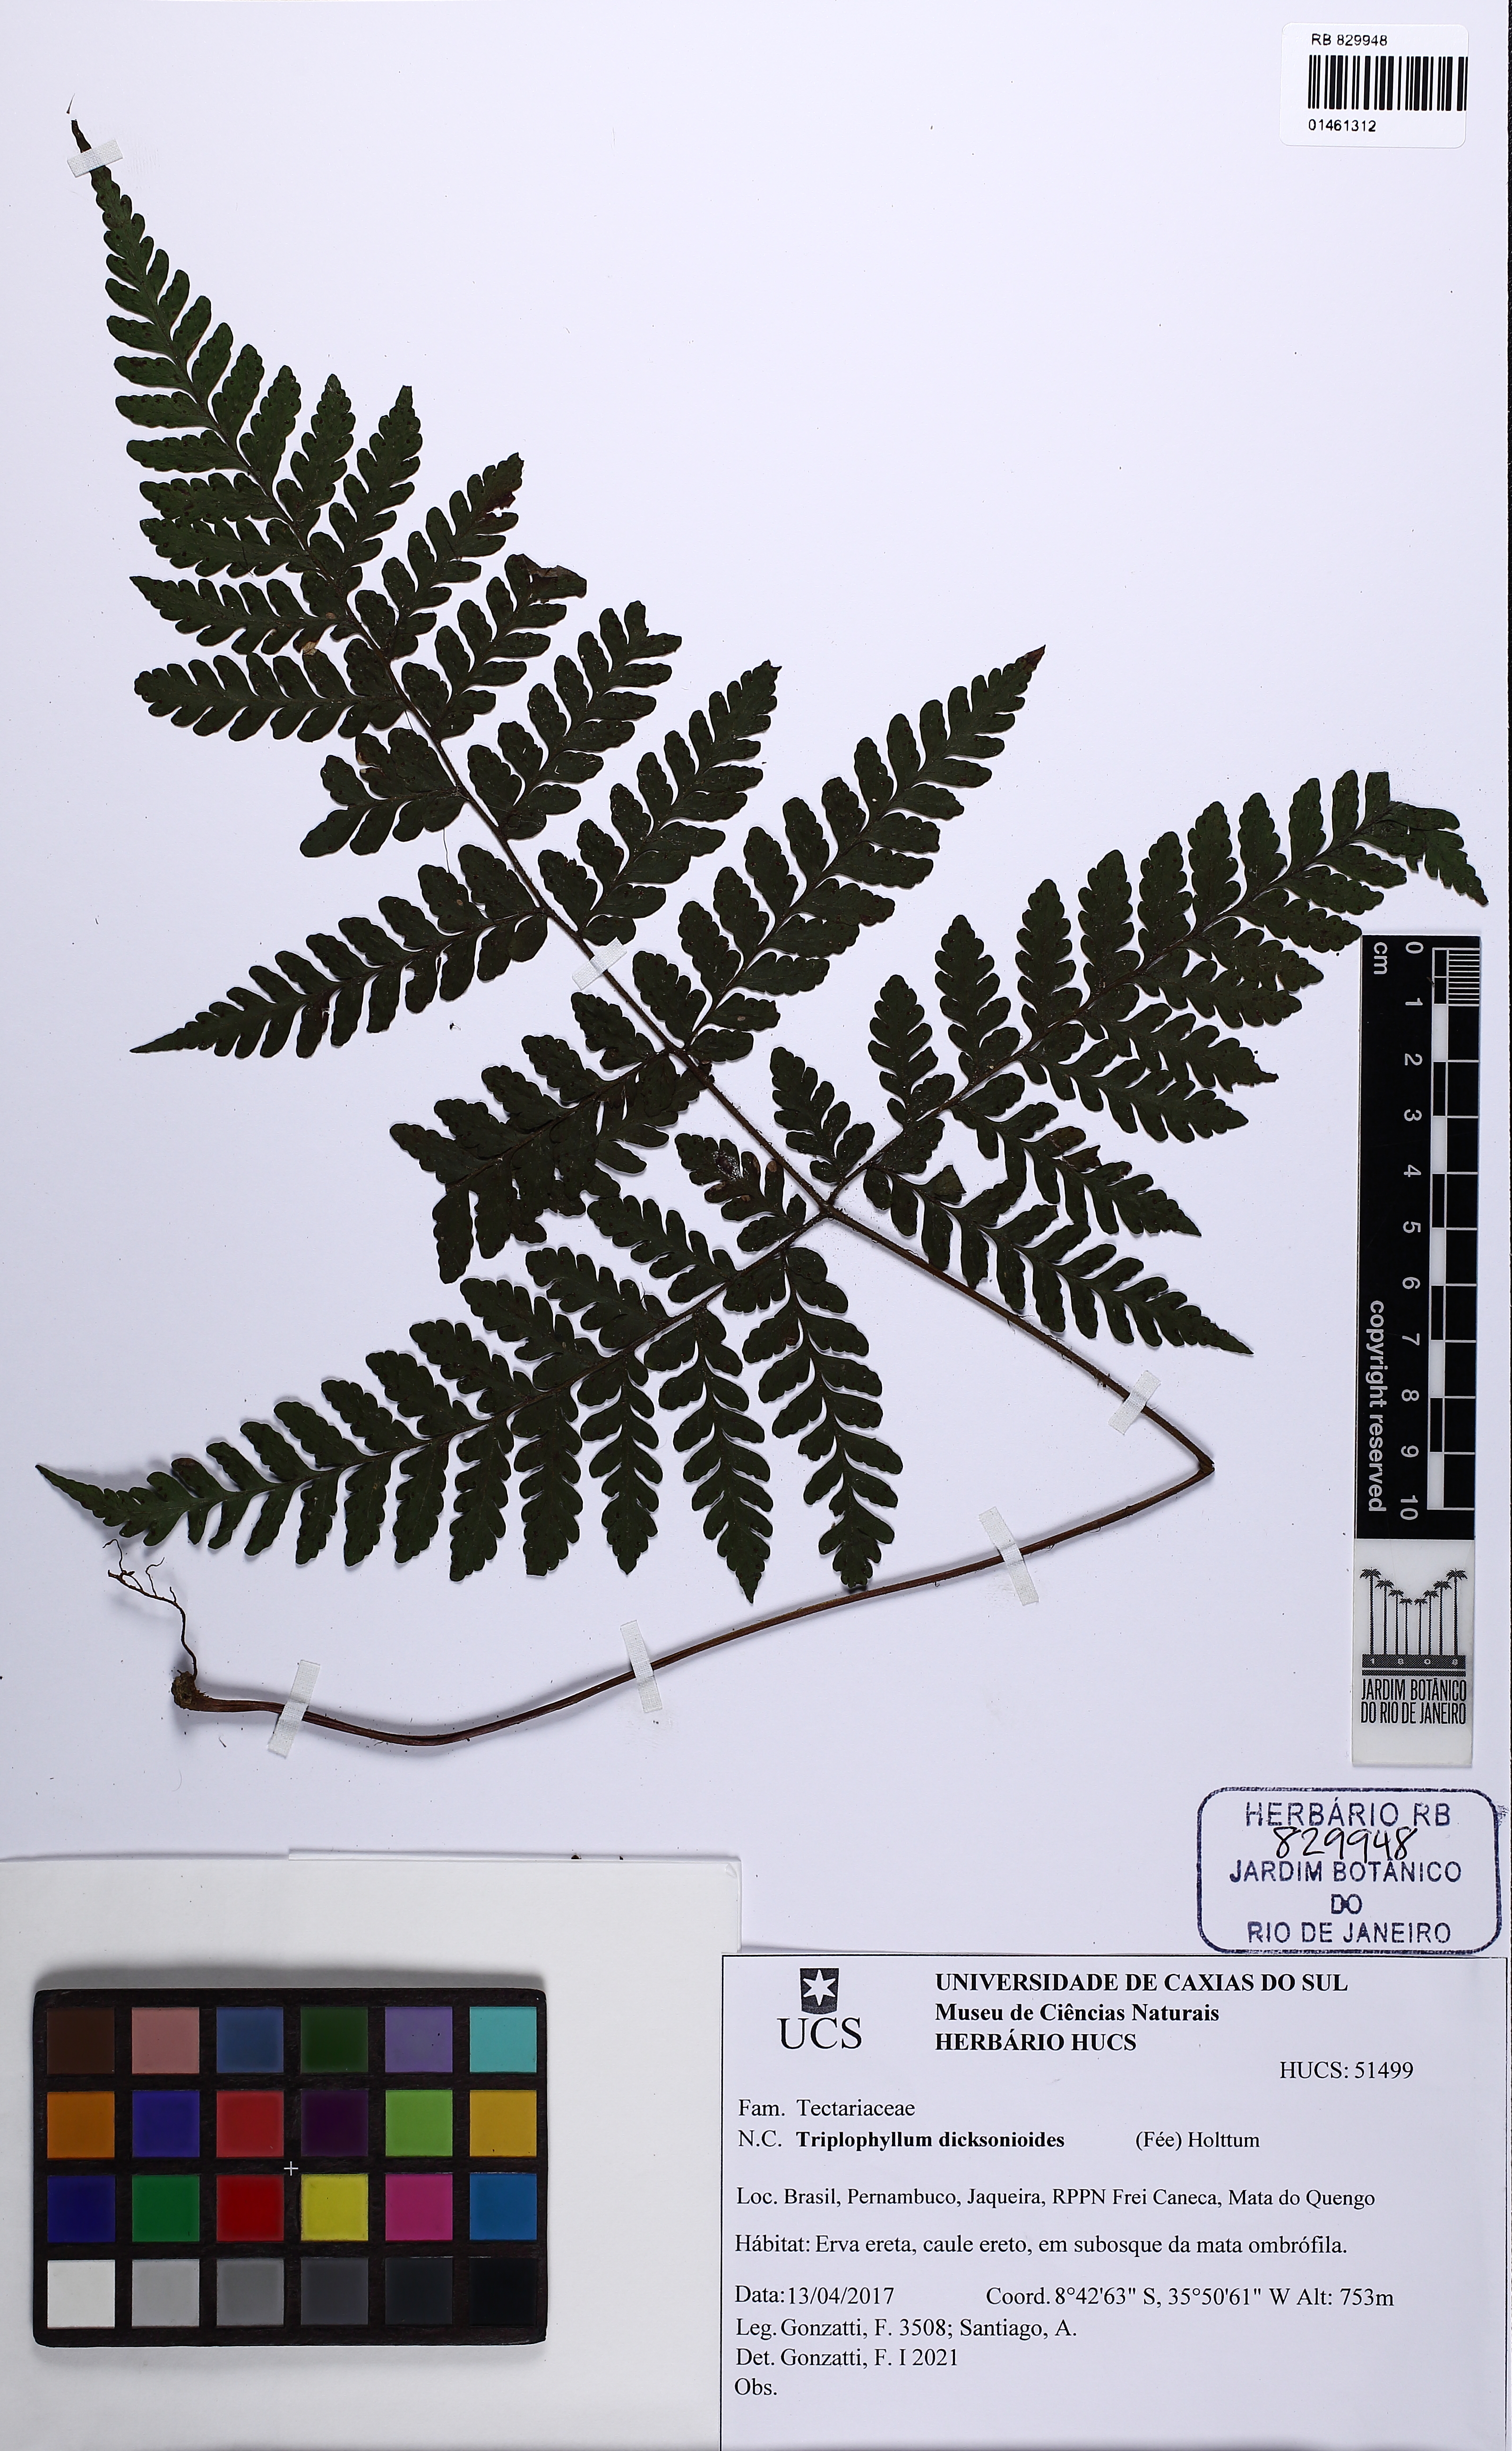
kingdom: Plantae
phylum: Tracheophyta
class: Polypodiopsida
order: Polypodiales
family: Tectariaceae
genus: Triplophyllum
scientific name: Triplophyllum dicksonioides
